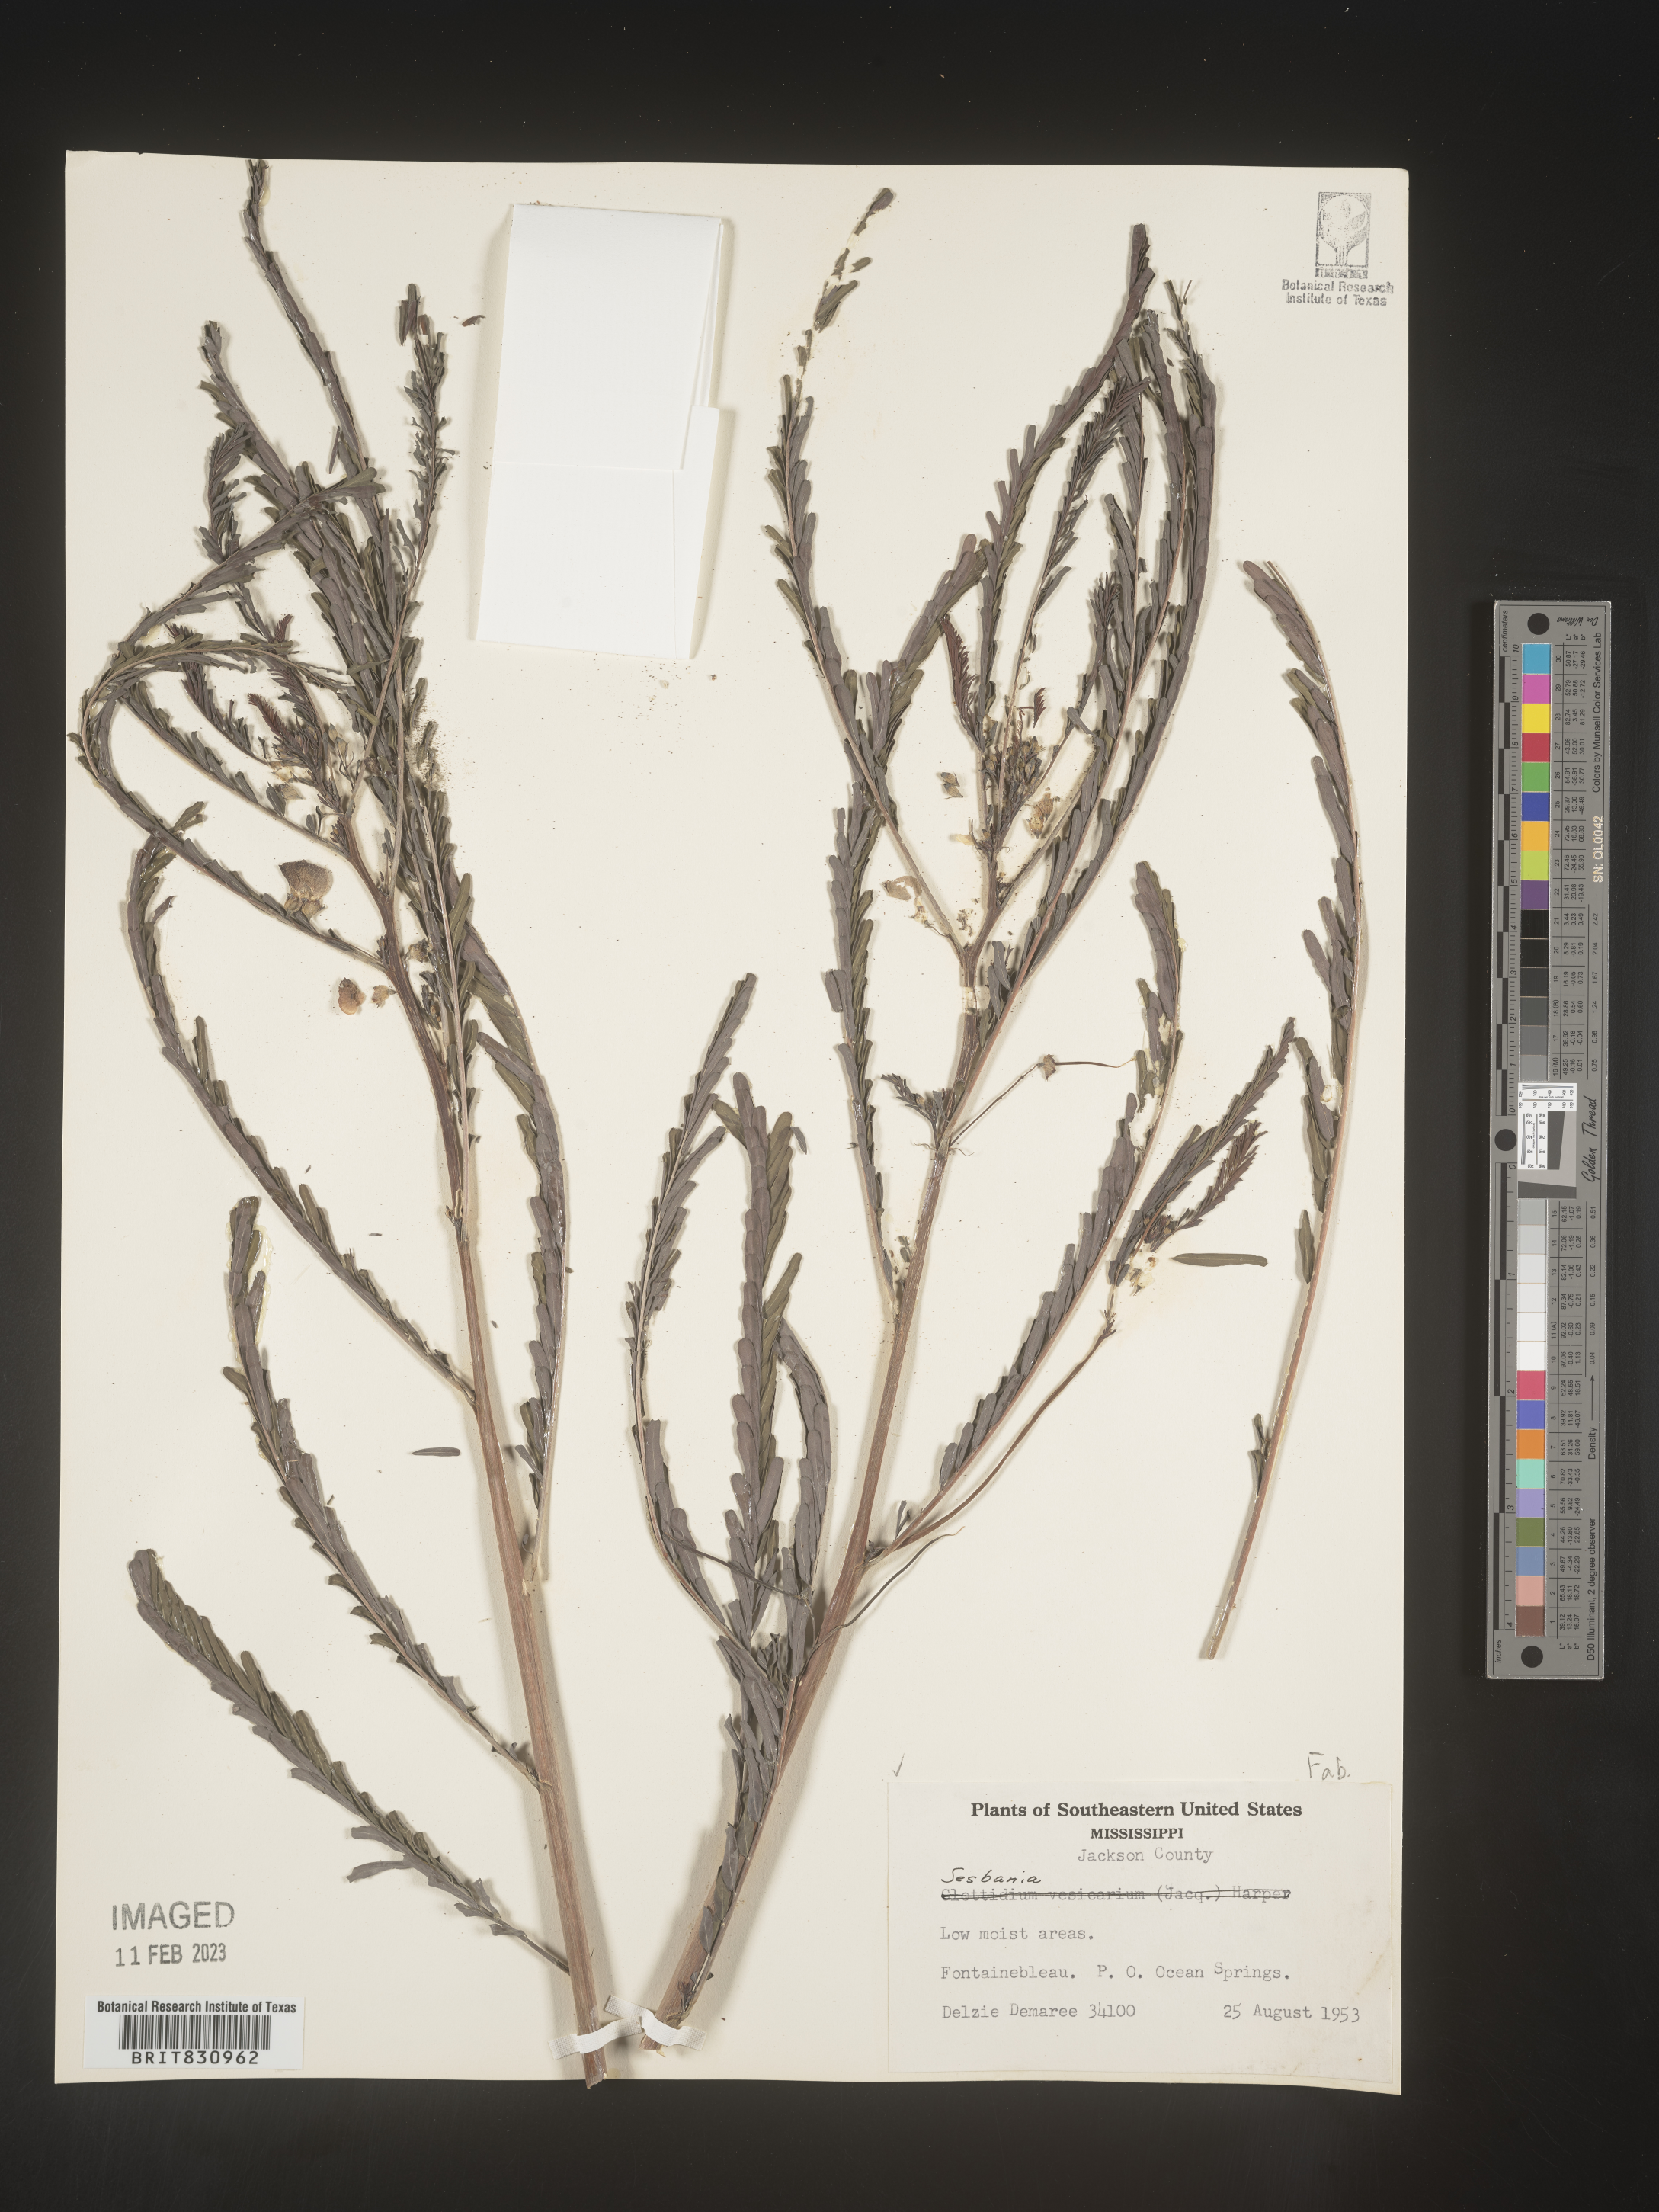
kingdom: Plantae
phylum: Tracheophyta
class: Magnoliopsida
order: Fabales
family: Fabaceae
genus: Sesbania
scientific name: Sesbania
